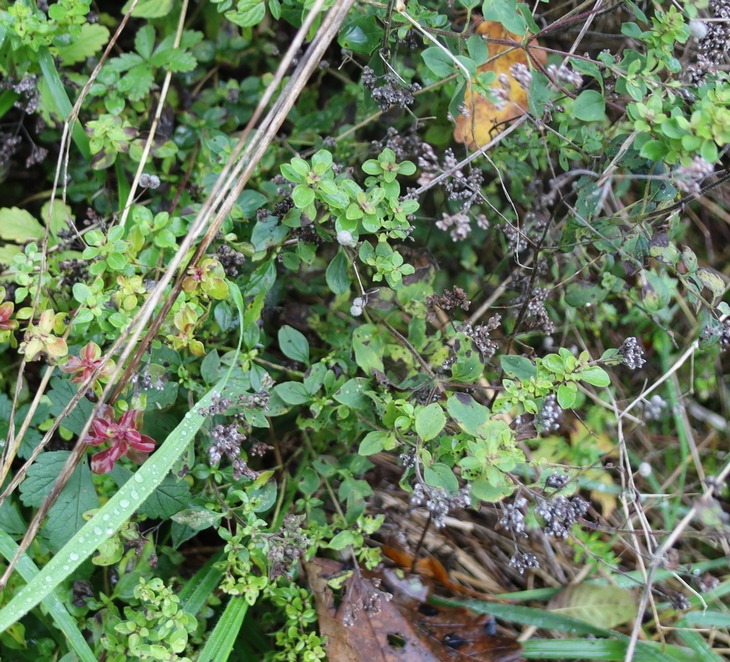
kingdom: Plantae
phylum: Tracheophyta
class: Magnoliopsida
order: Lamiales
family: Lamiaceae
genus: Origanum
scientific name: Origanum vulgare
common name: Merian
